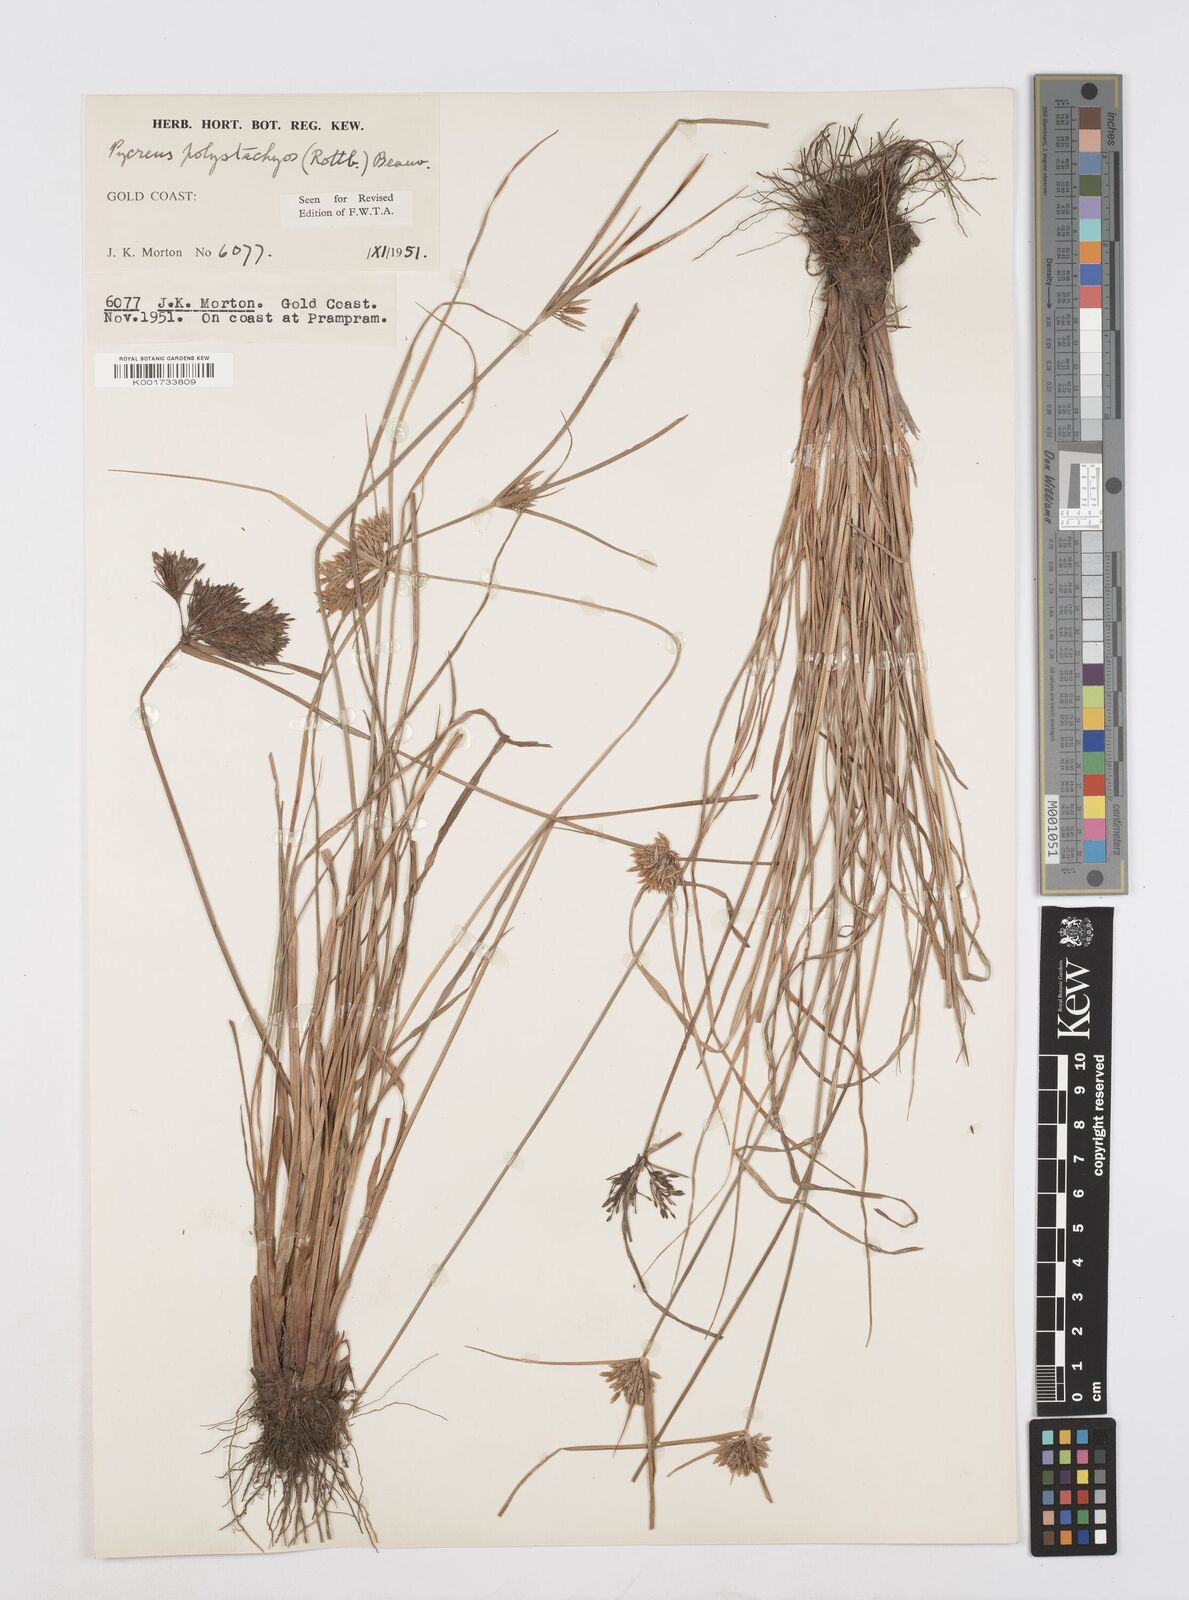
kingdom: Plantae
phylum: Tracheophyta
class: Liliopsida
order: Poales
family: Cyperaceae
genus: Cyperus
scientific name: Cyperus polystachyos
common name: Bunchy flat sedge
